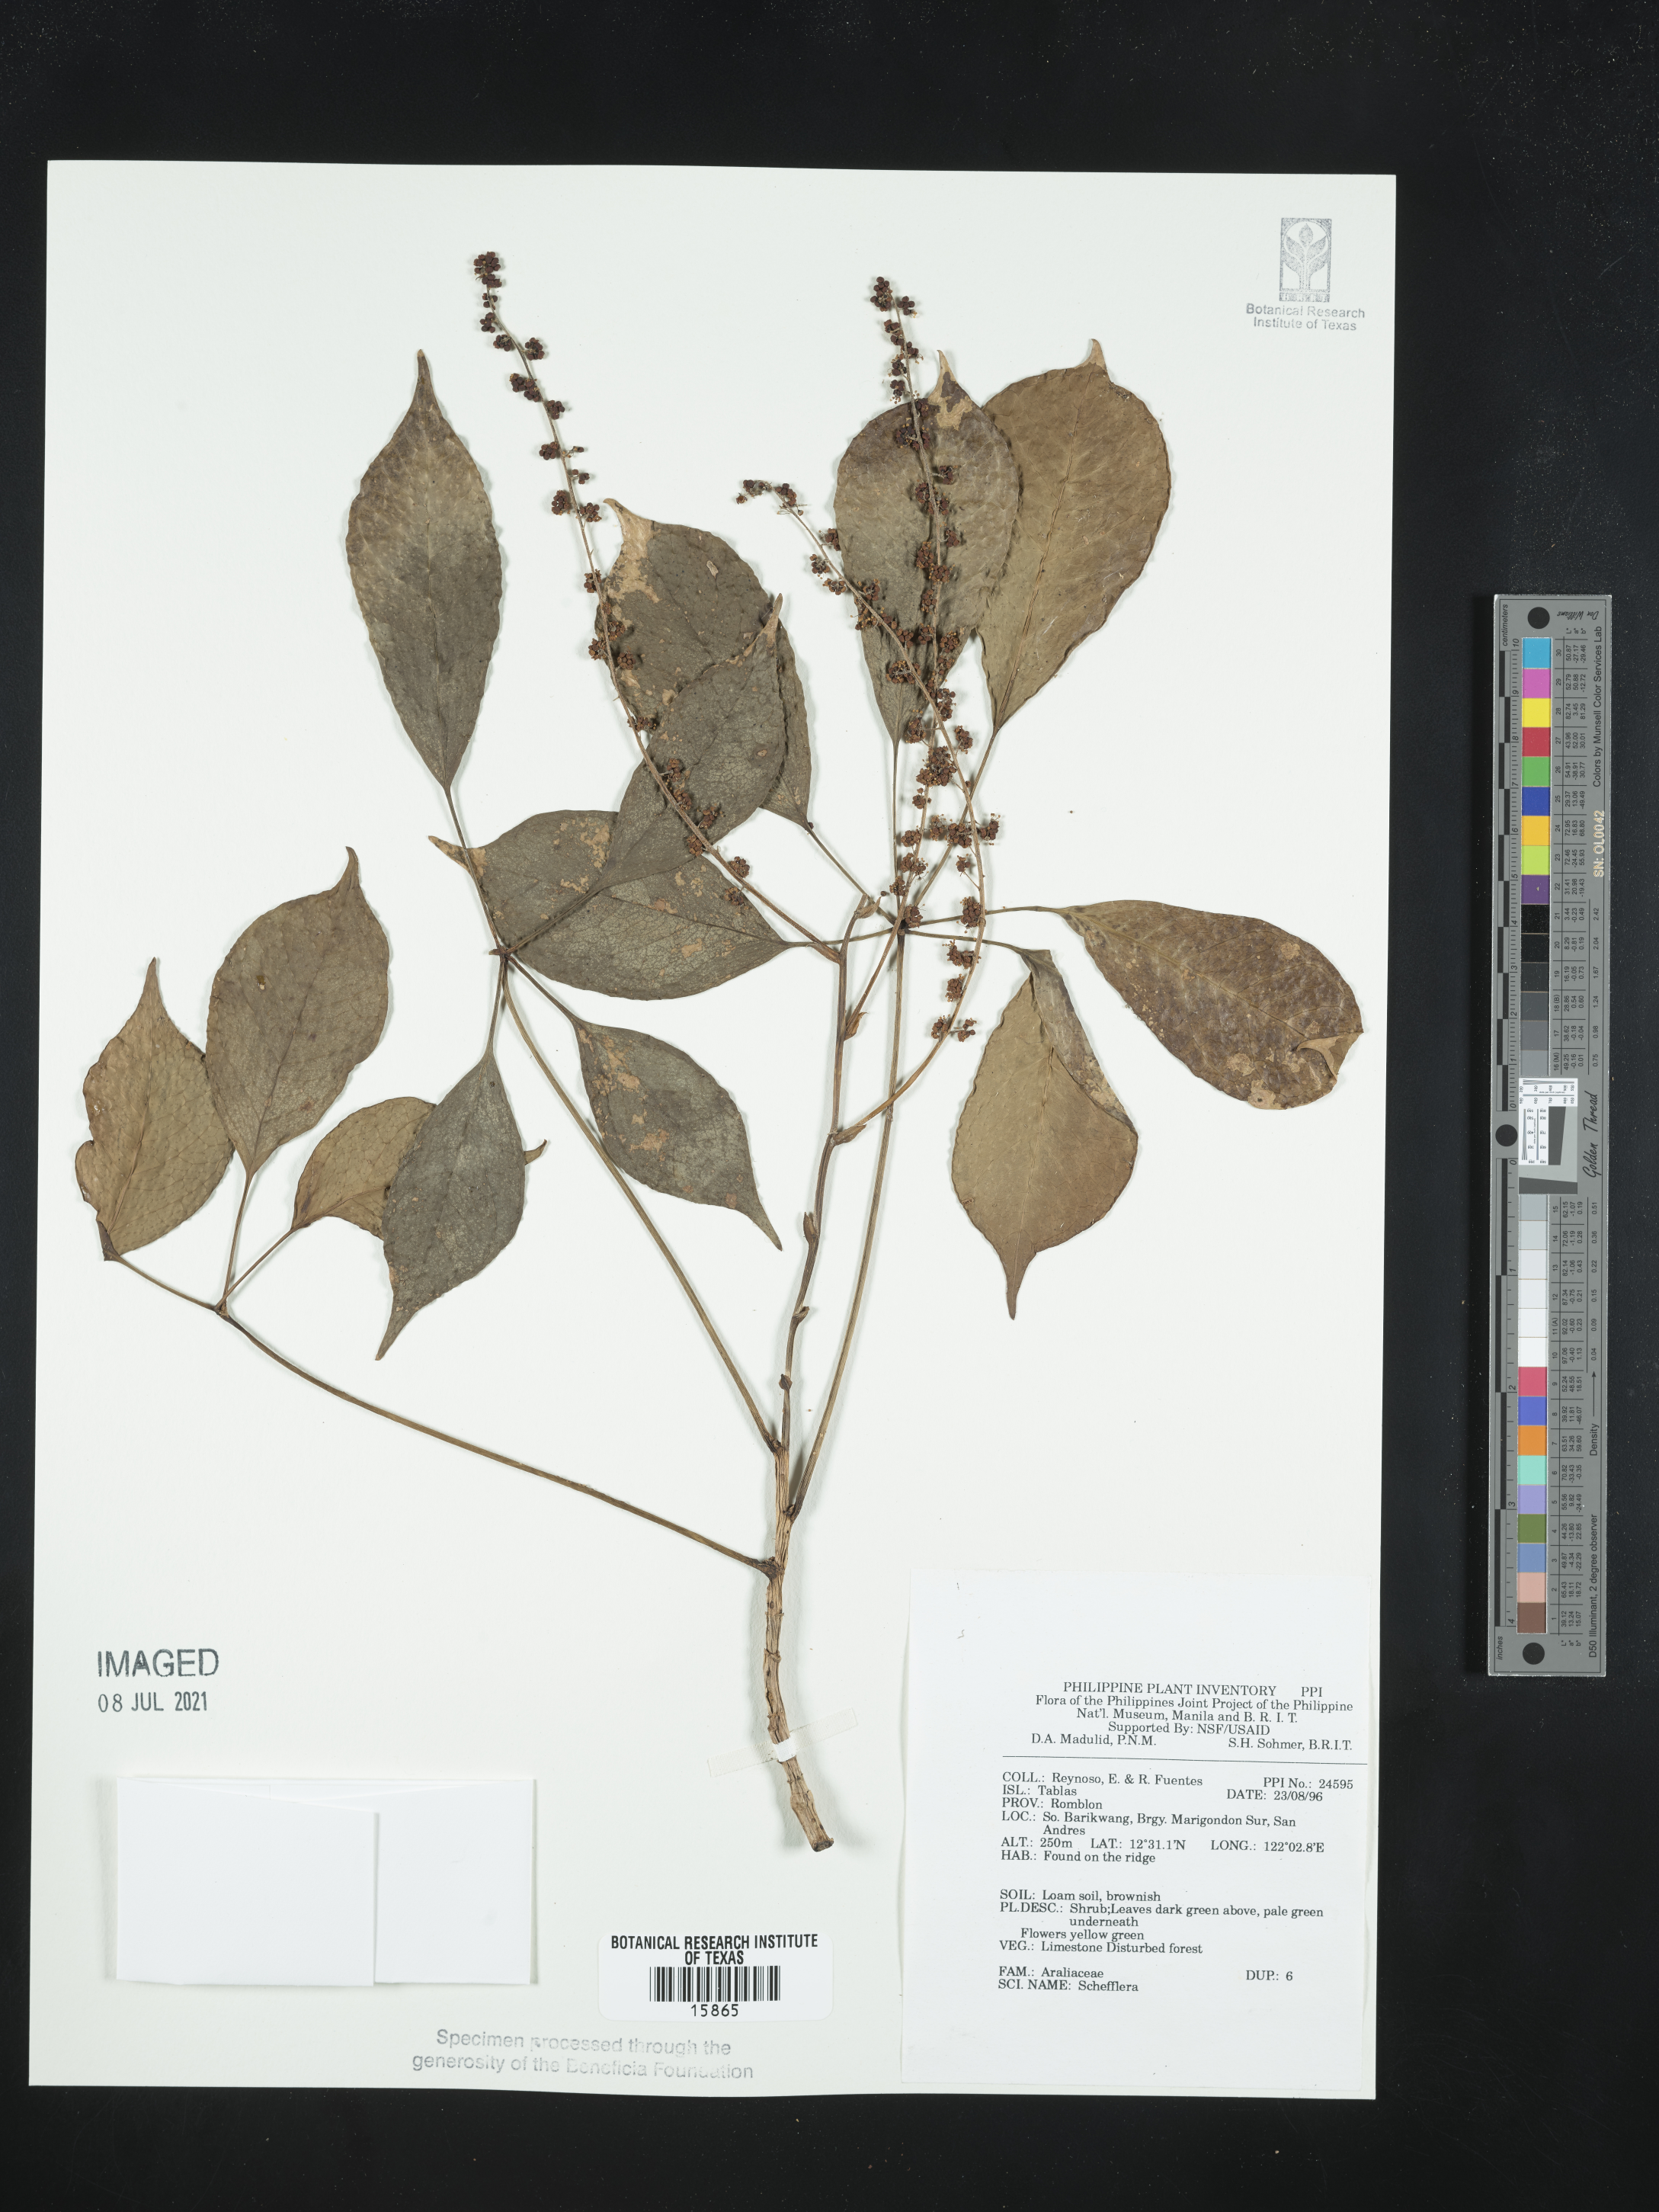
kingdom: Plantae
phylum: Tracheophyta
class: Magnoliopsida
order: Apiales
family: Araliaceae
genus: Schefflera
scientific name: Schefflera
